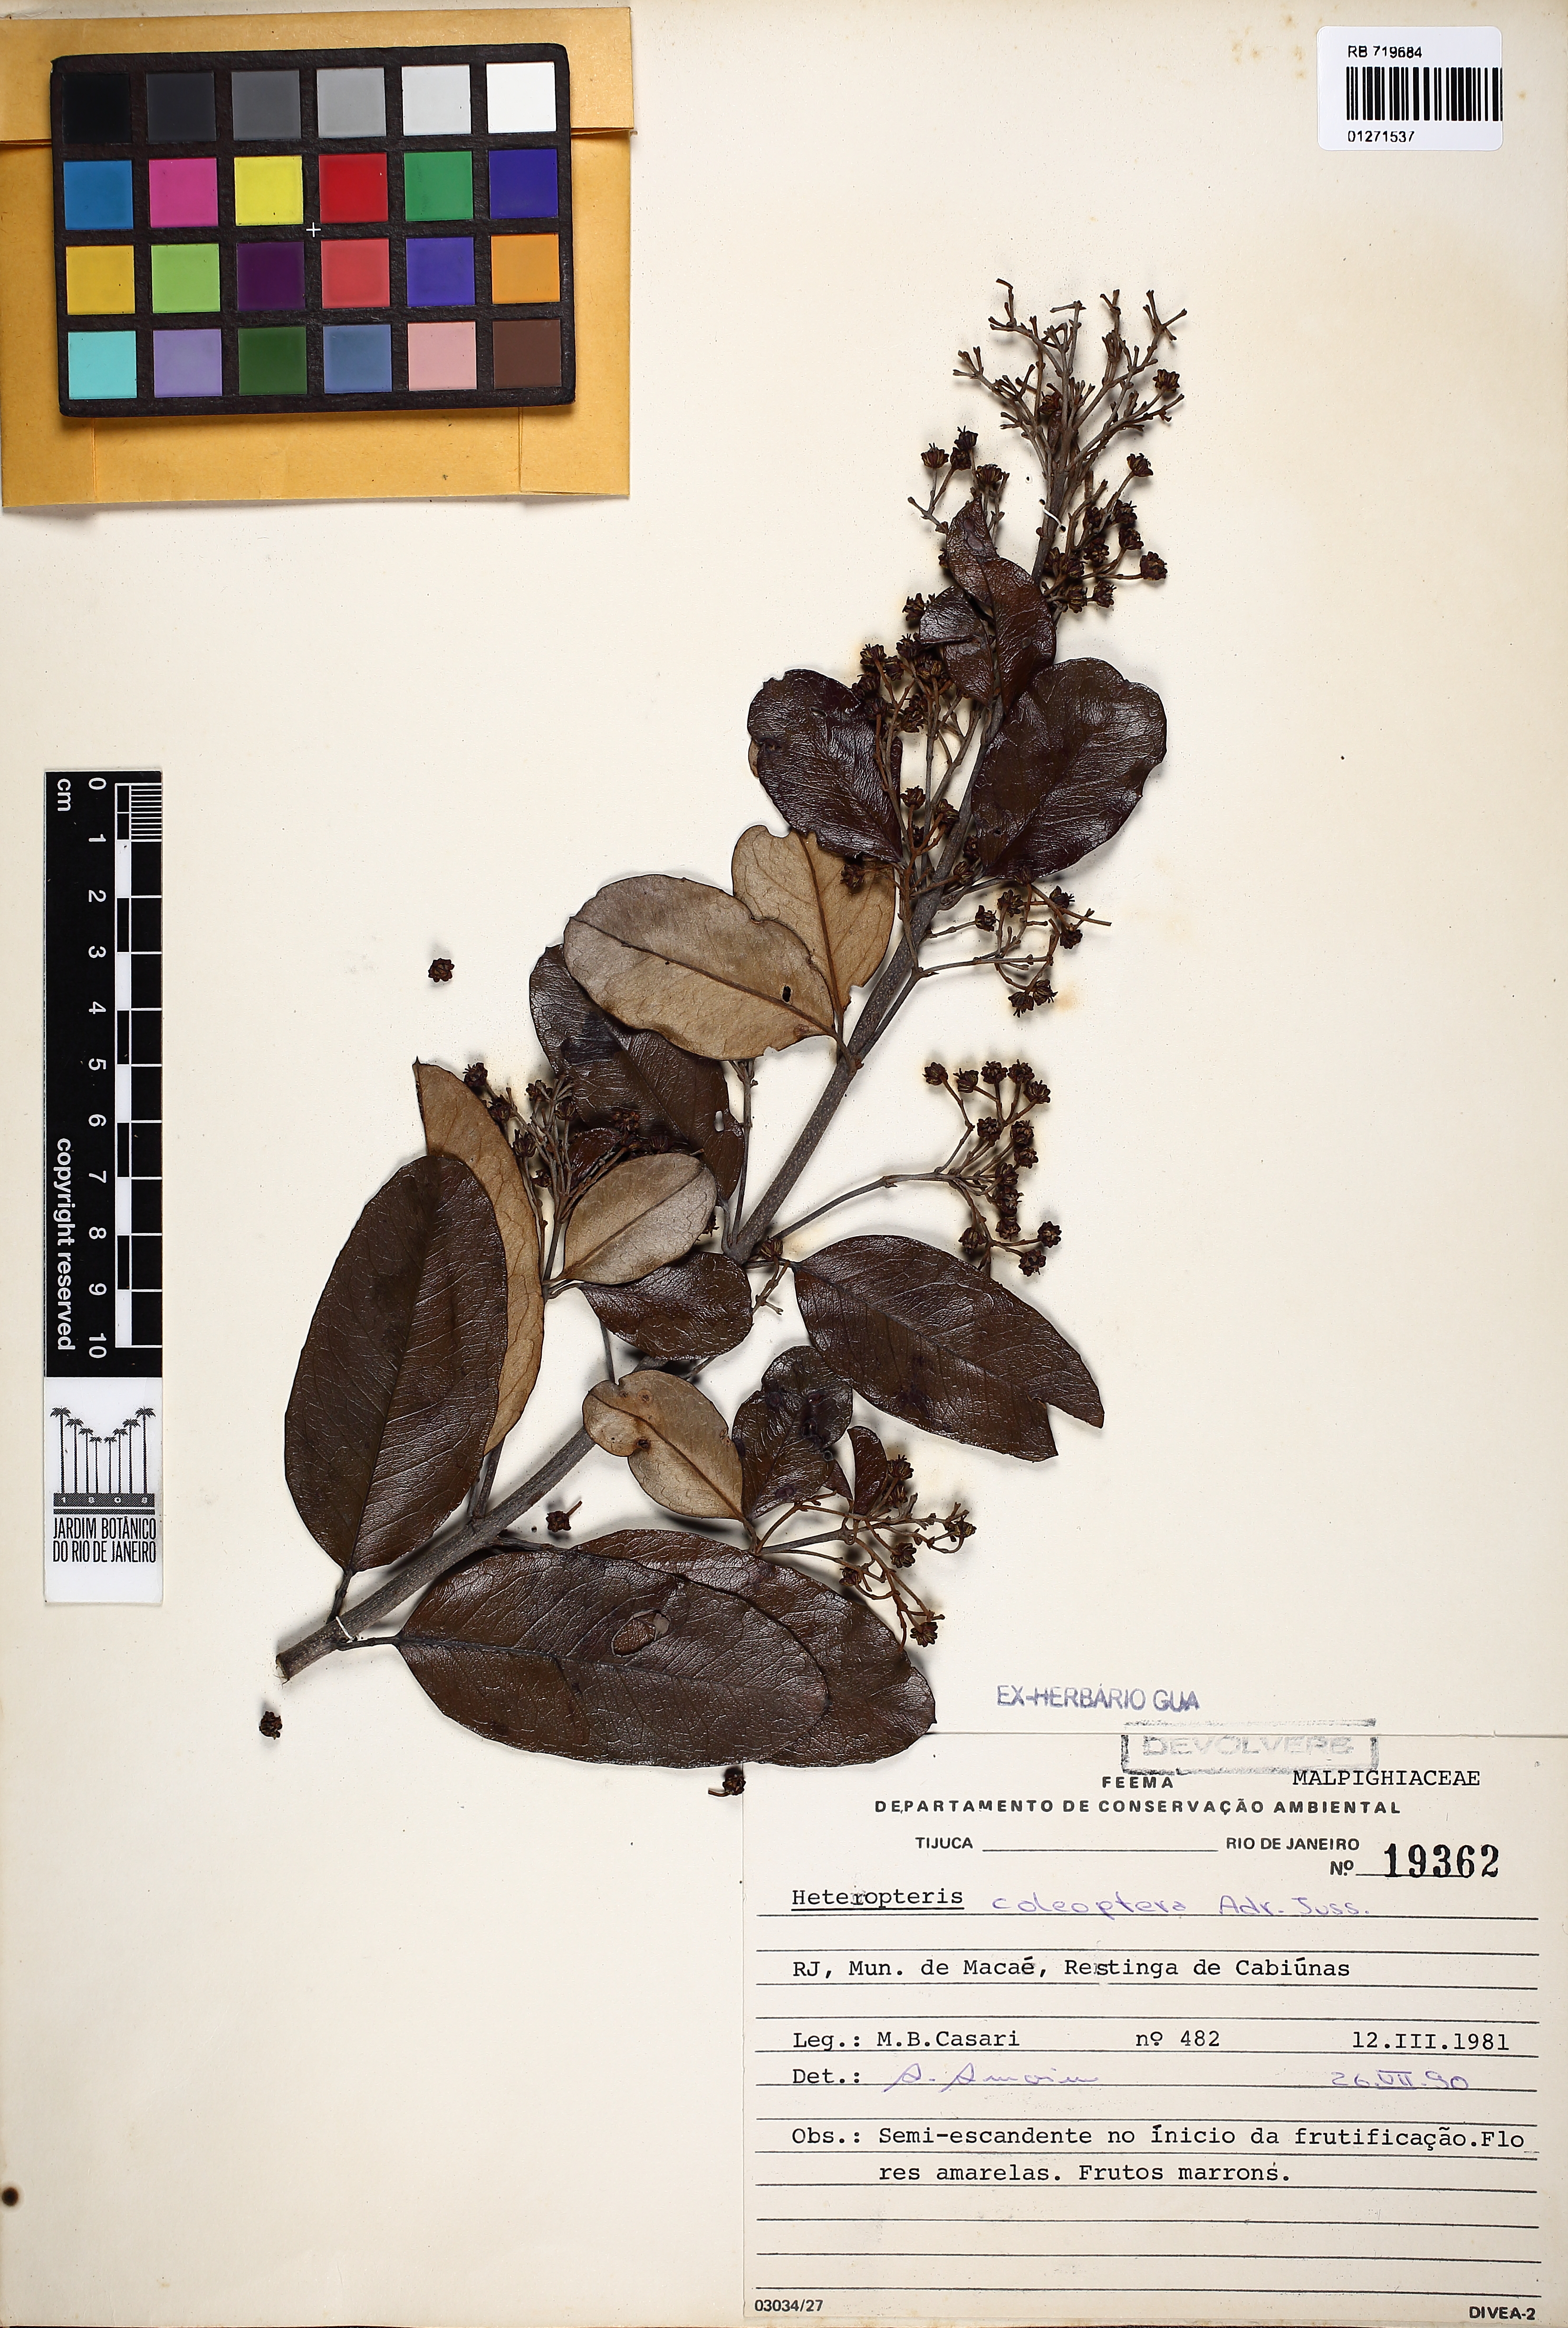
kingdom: Plantae
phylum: Tracheophyta
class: Magnoliopsida
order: Malpighiales
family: Malpighiaceae
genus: Heteropterys
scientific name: Heteropterys coleoptera
